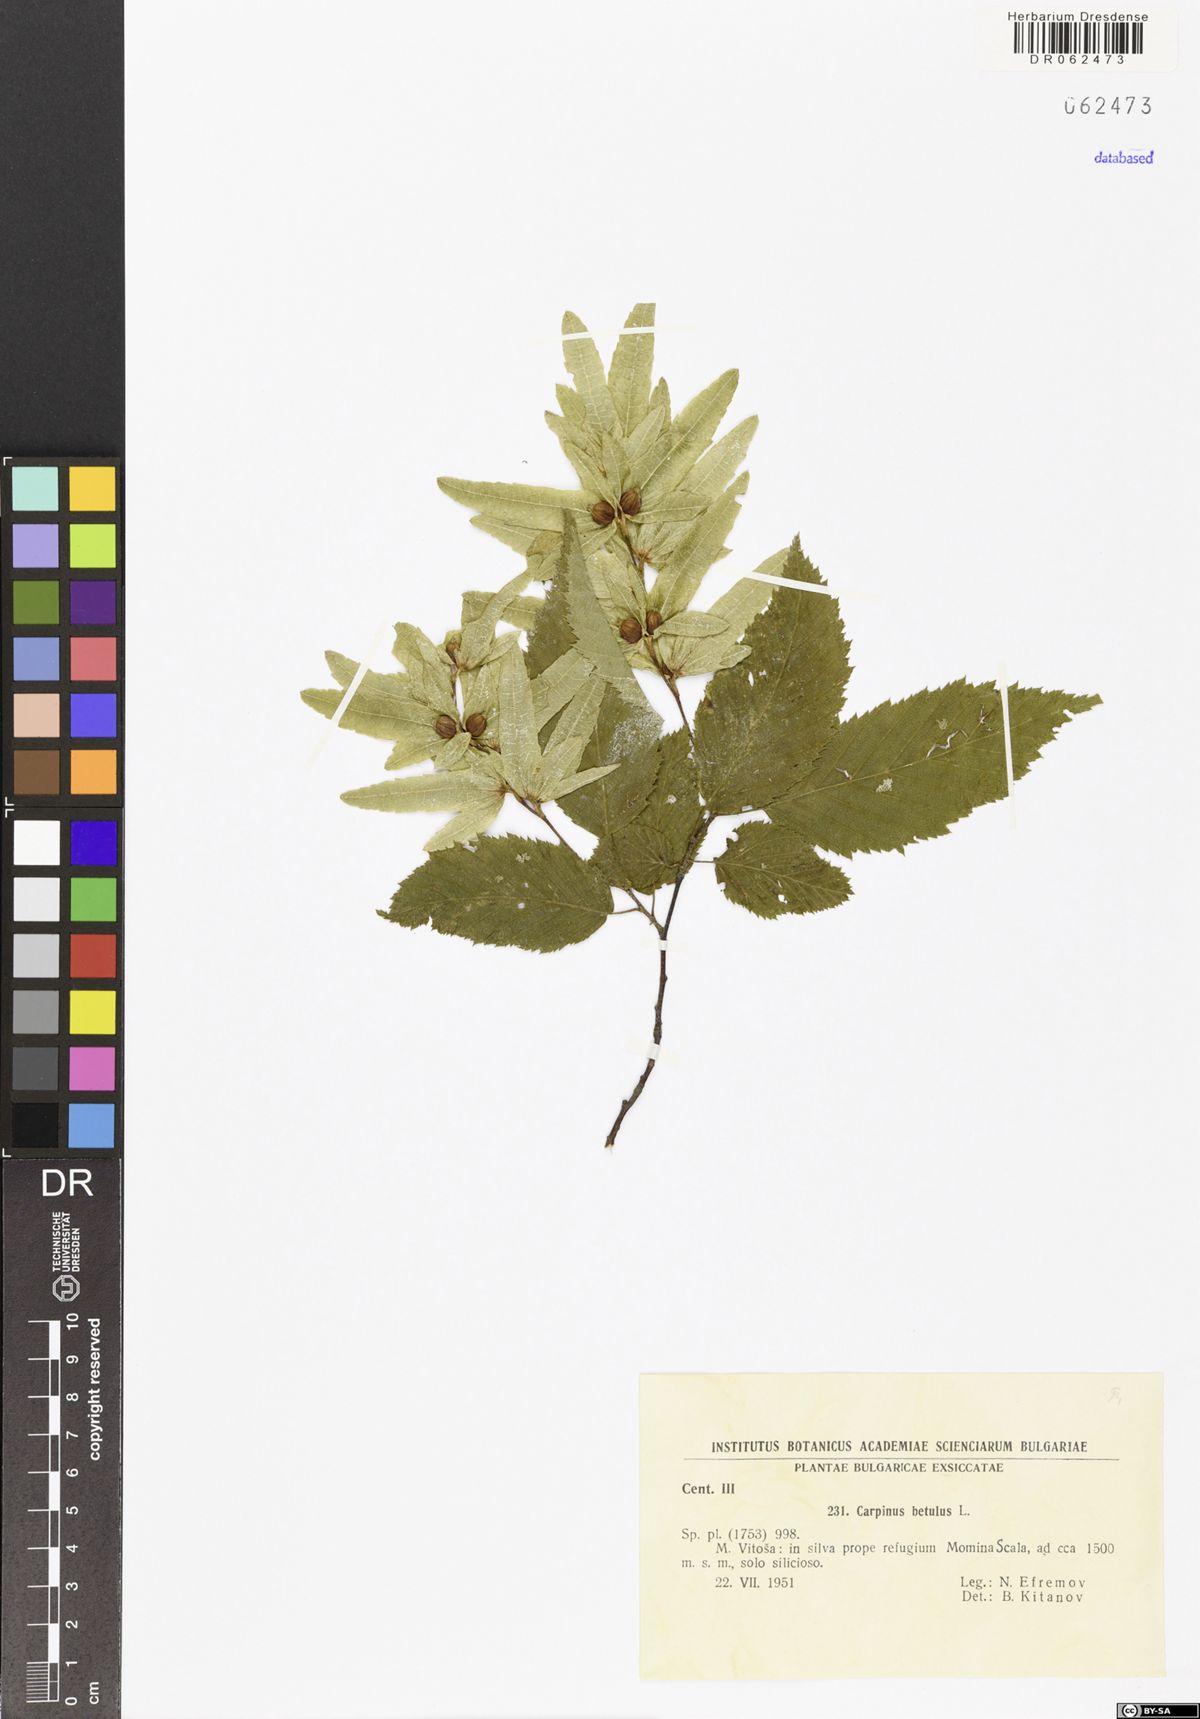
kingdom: Plantae
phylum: Tracheophyta
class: Magnoliopsida
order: Fagales
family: Betulaceae
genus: Carpinus
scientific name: Carpinus betulus
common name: Hornbeam
